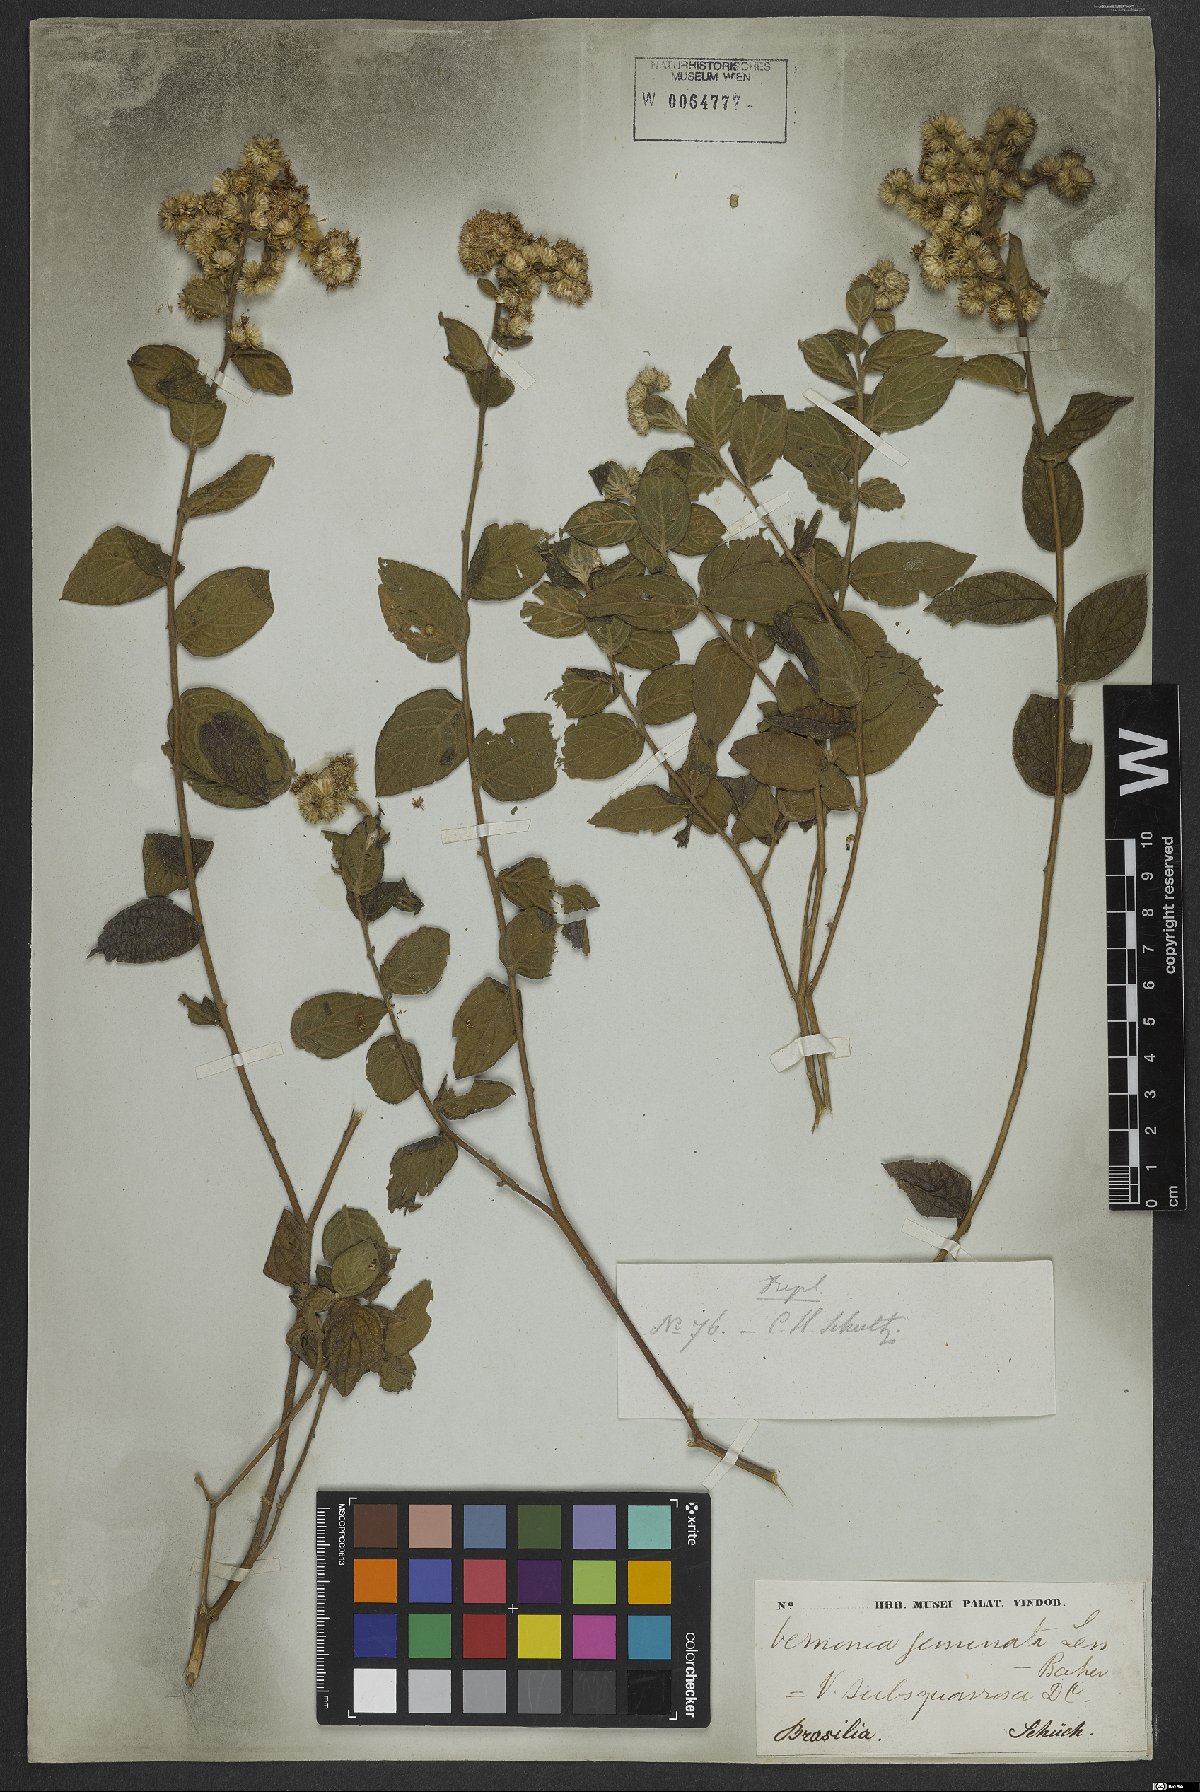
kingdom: Plantae
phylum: Tracheophyta
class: Magnoliopsida
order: Asterales
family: Asteraceae
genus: Lepidaploa
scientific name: Lepidaploa subsquarrosa
